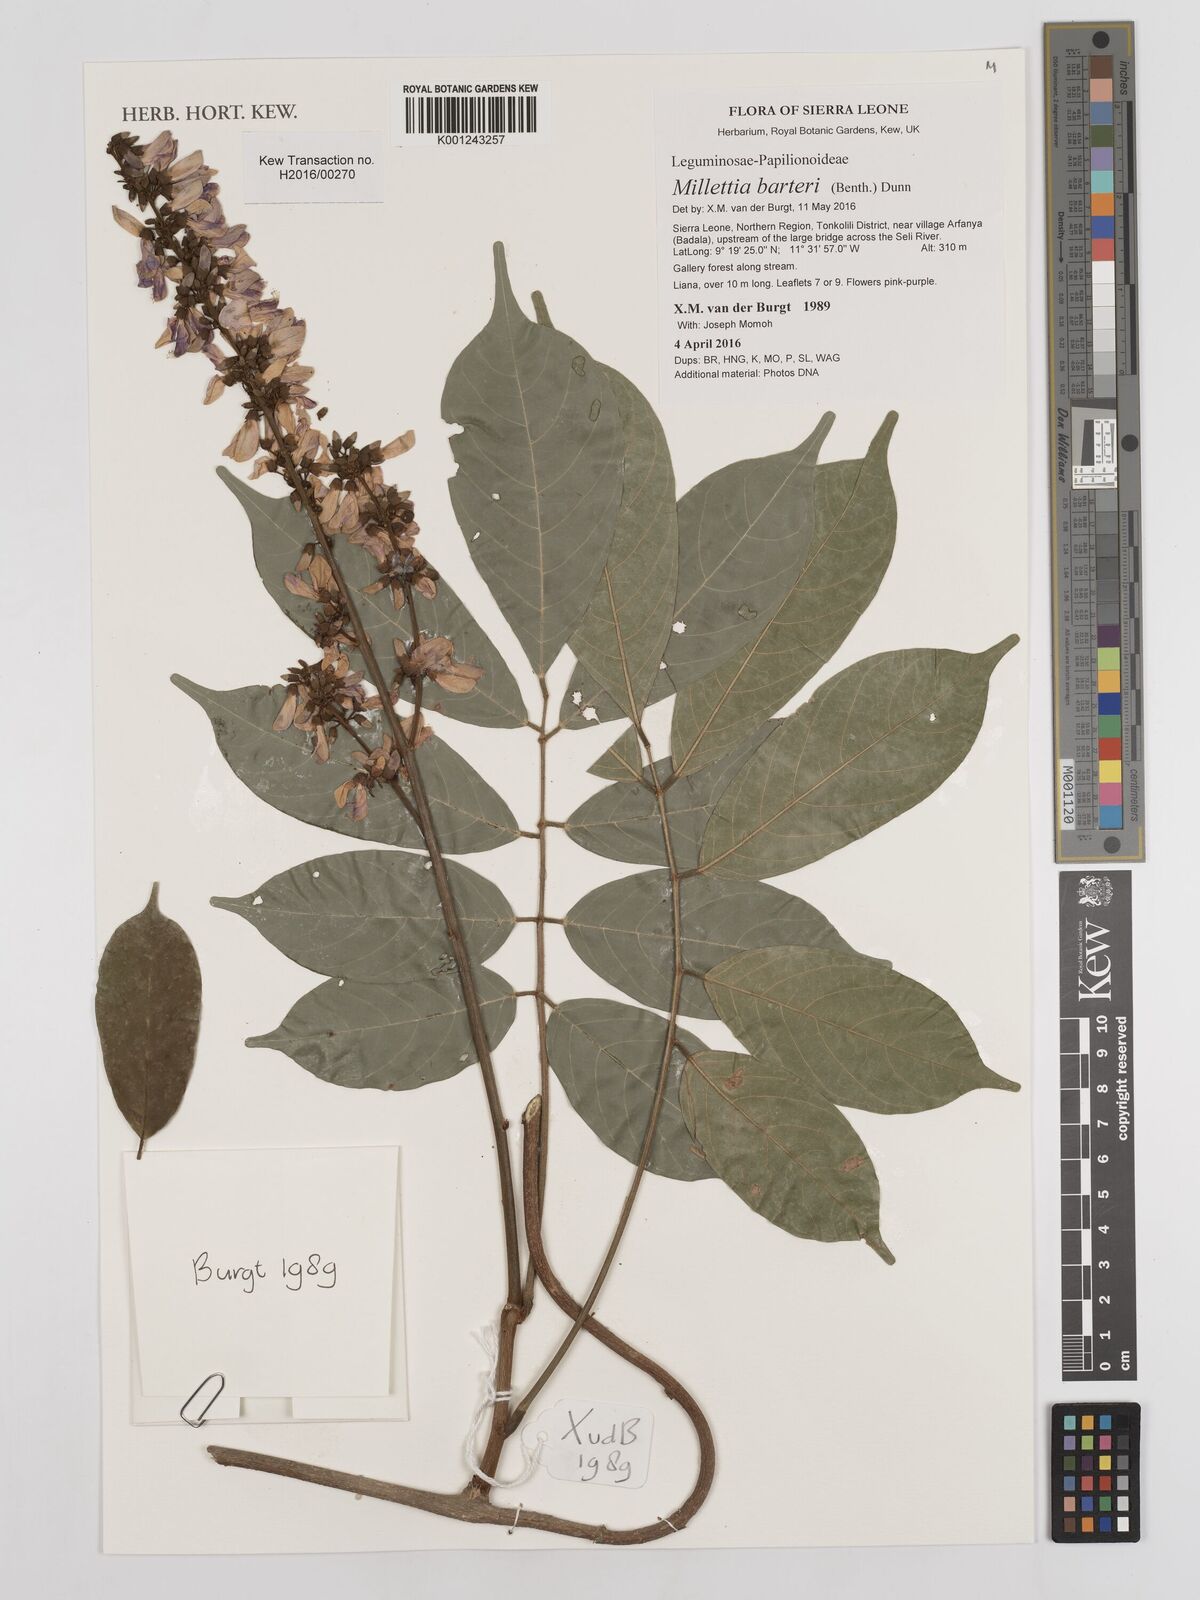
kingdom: Plantae
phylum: Tracheophyta
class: Magnoliopsida
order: Fabales
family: Fabaceae
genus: Millettia
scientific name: Millettia barteri
